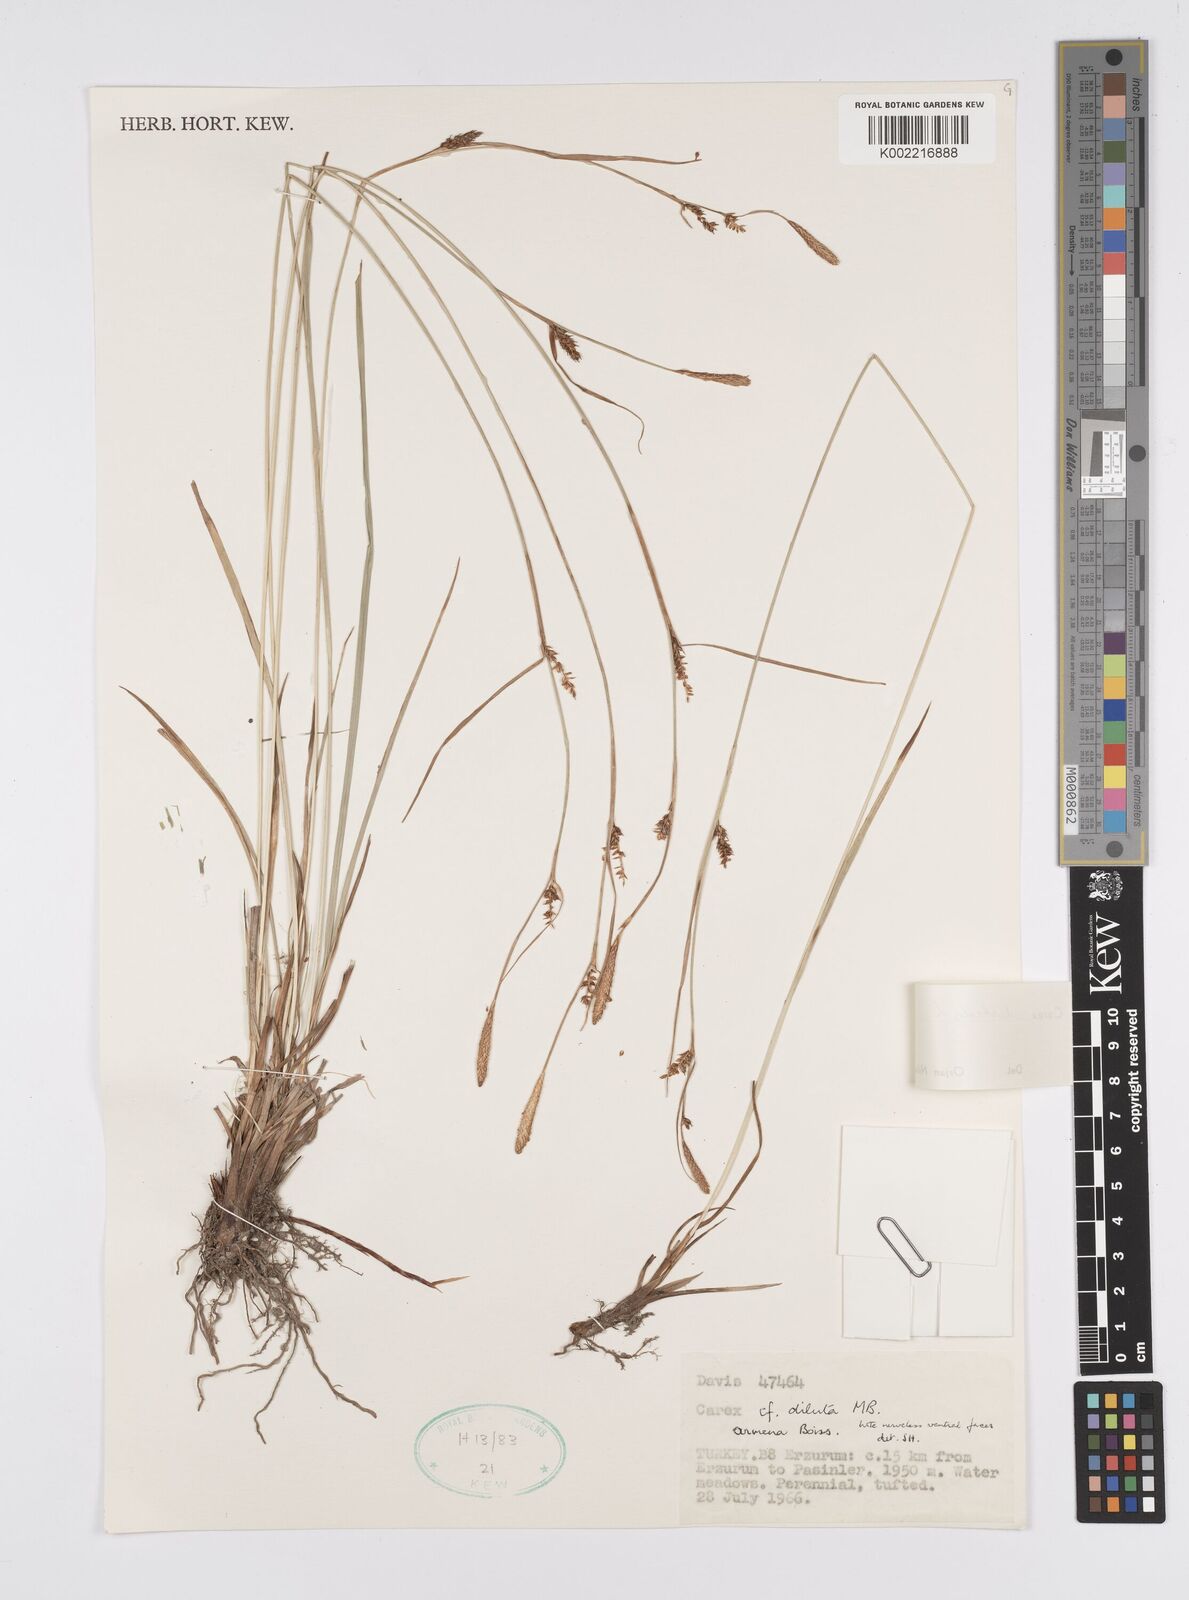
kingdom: Plantae
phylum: Tracheophyta
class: Liliopsida
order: Poales
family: Cyperaceae
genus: Carex
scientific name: Carex distans
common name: Distant sedge
